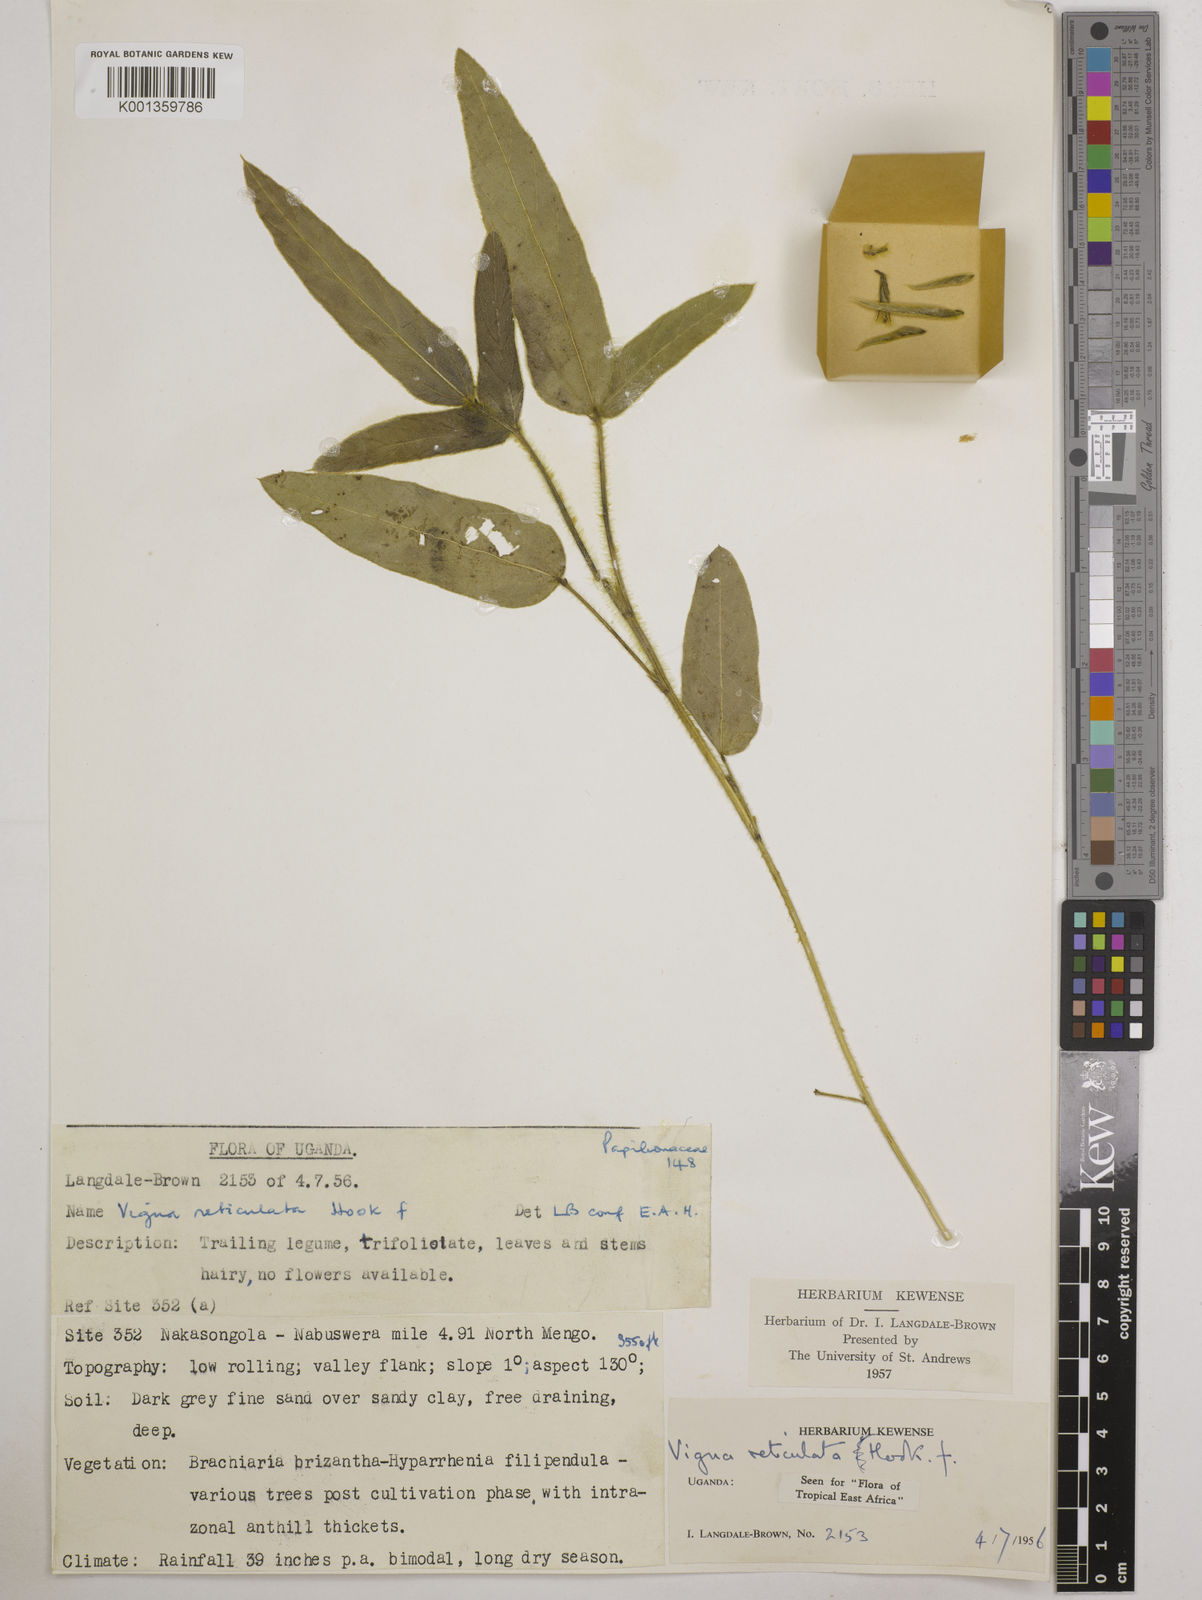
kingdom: Plantae
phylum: Tracheophyta
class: Magnoliopsida
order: Fabales
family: Fabaceae
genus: Vigna
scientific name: Vigna reticulata
